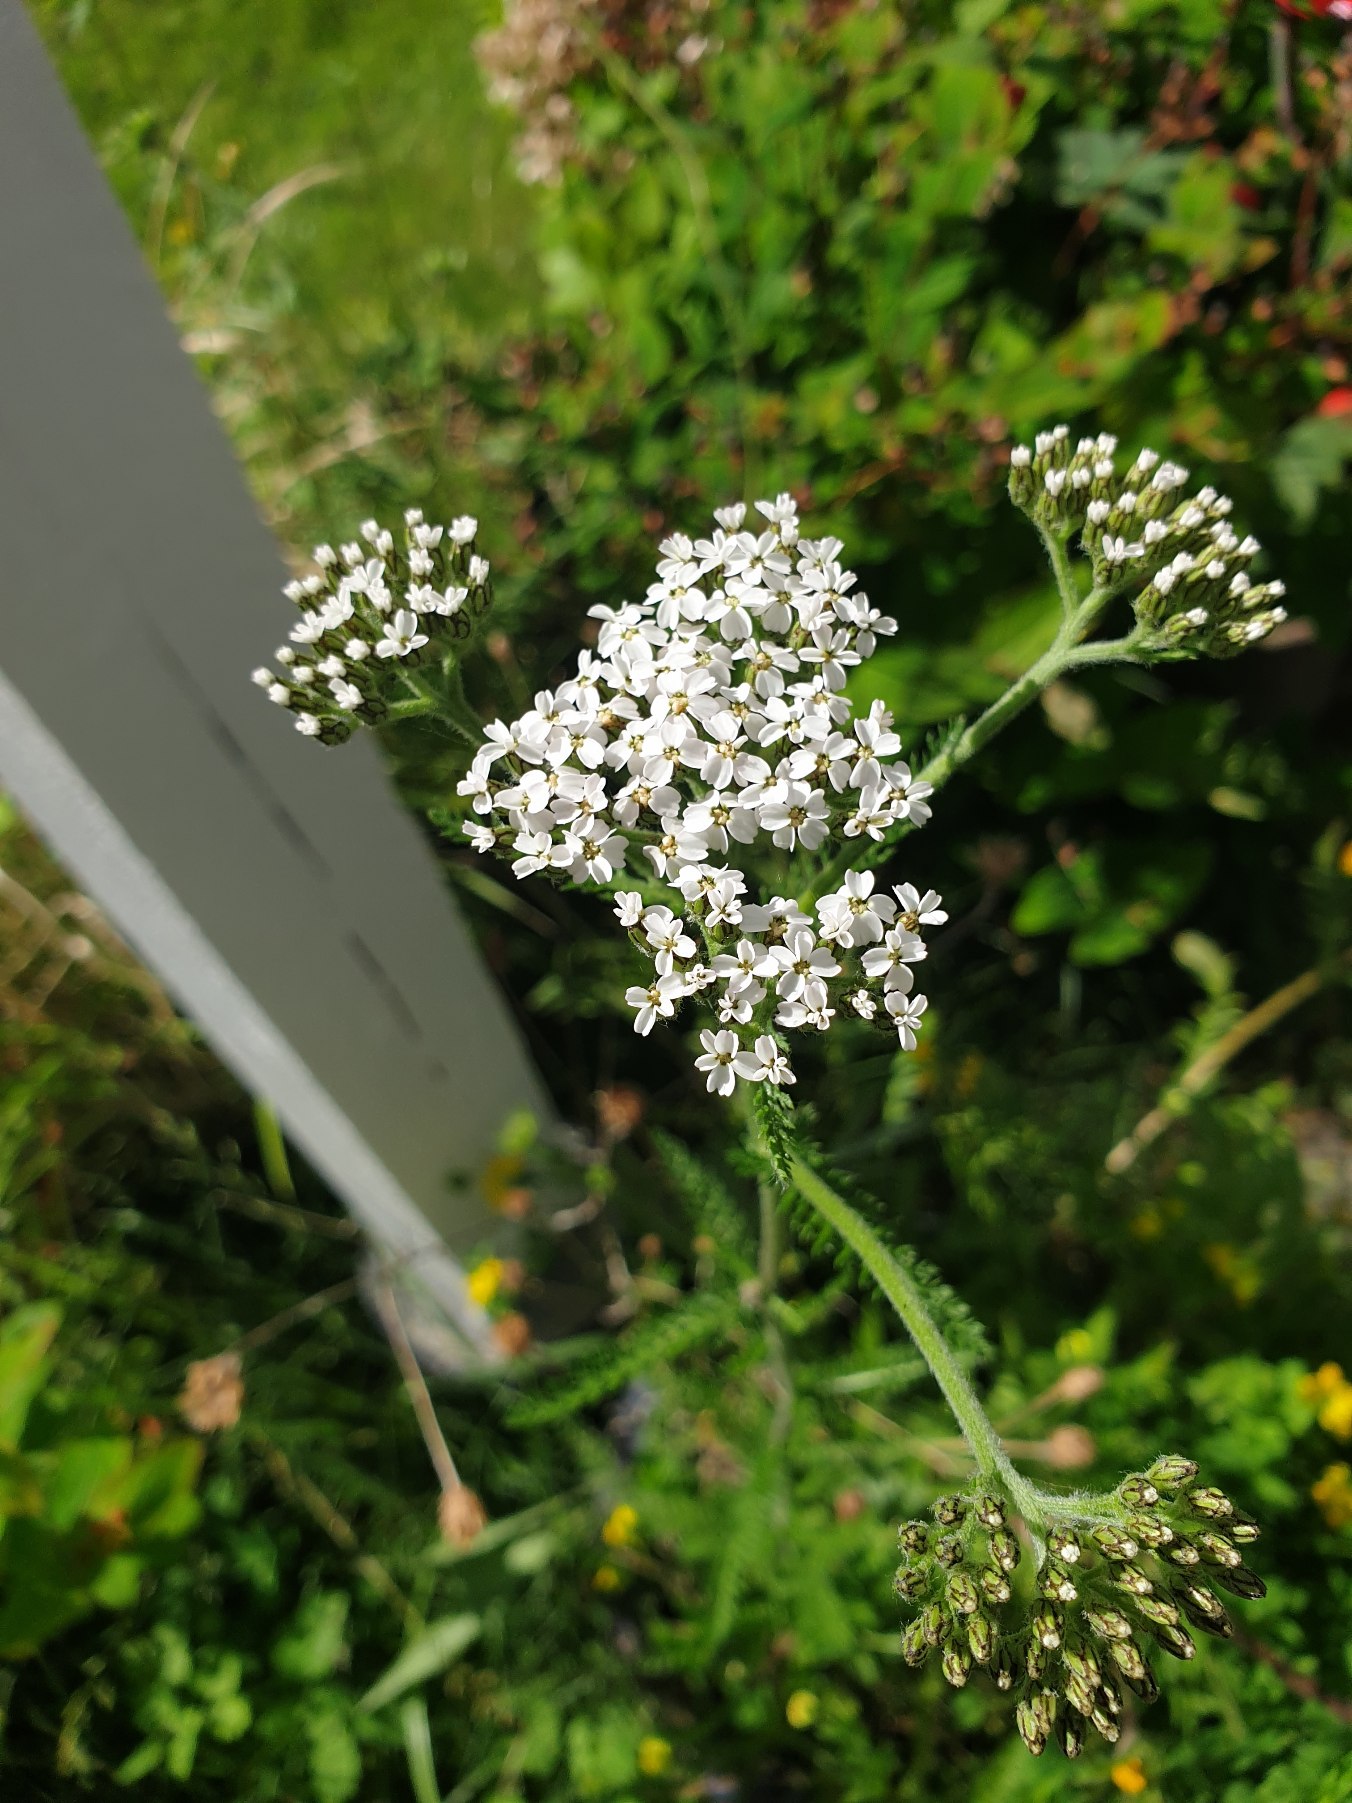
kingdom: Plantae
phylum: Tracheophyta
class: Magnoliopsida
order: Asterales
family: Asteraceae
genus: Achillea
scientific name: Achillea millefolium
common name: Almindelig røllike
